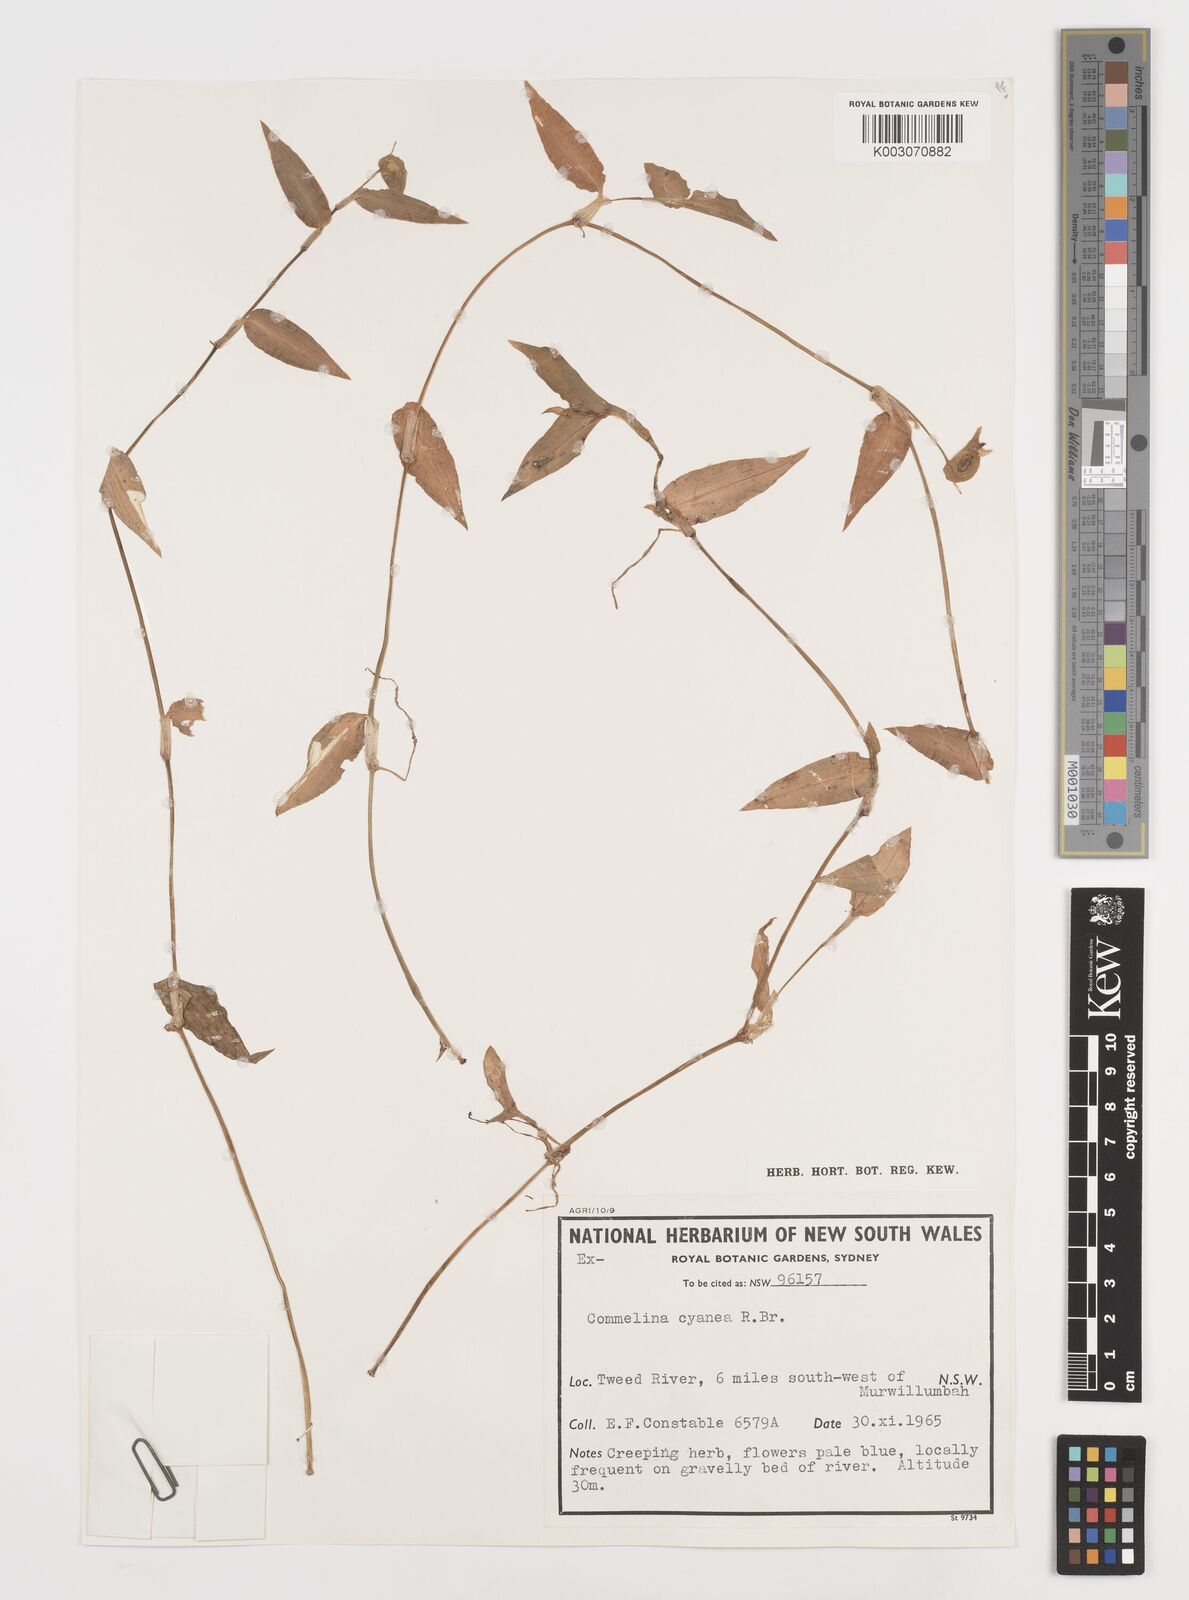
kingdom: Plantae
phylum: Tracheophyta
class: Liliopsida
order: Commelinales
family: Commelinaceae
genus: Commelina
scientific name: Commelina cyanea
